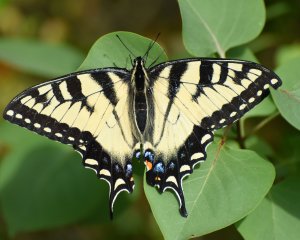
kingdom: Animalia
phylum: Arthropoda
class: Insecta
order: Lepidoptera
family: Papilionidae
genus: Pterourus
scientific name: Pterourus glaucus
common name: Eastern Tiger Swallowtail
